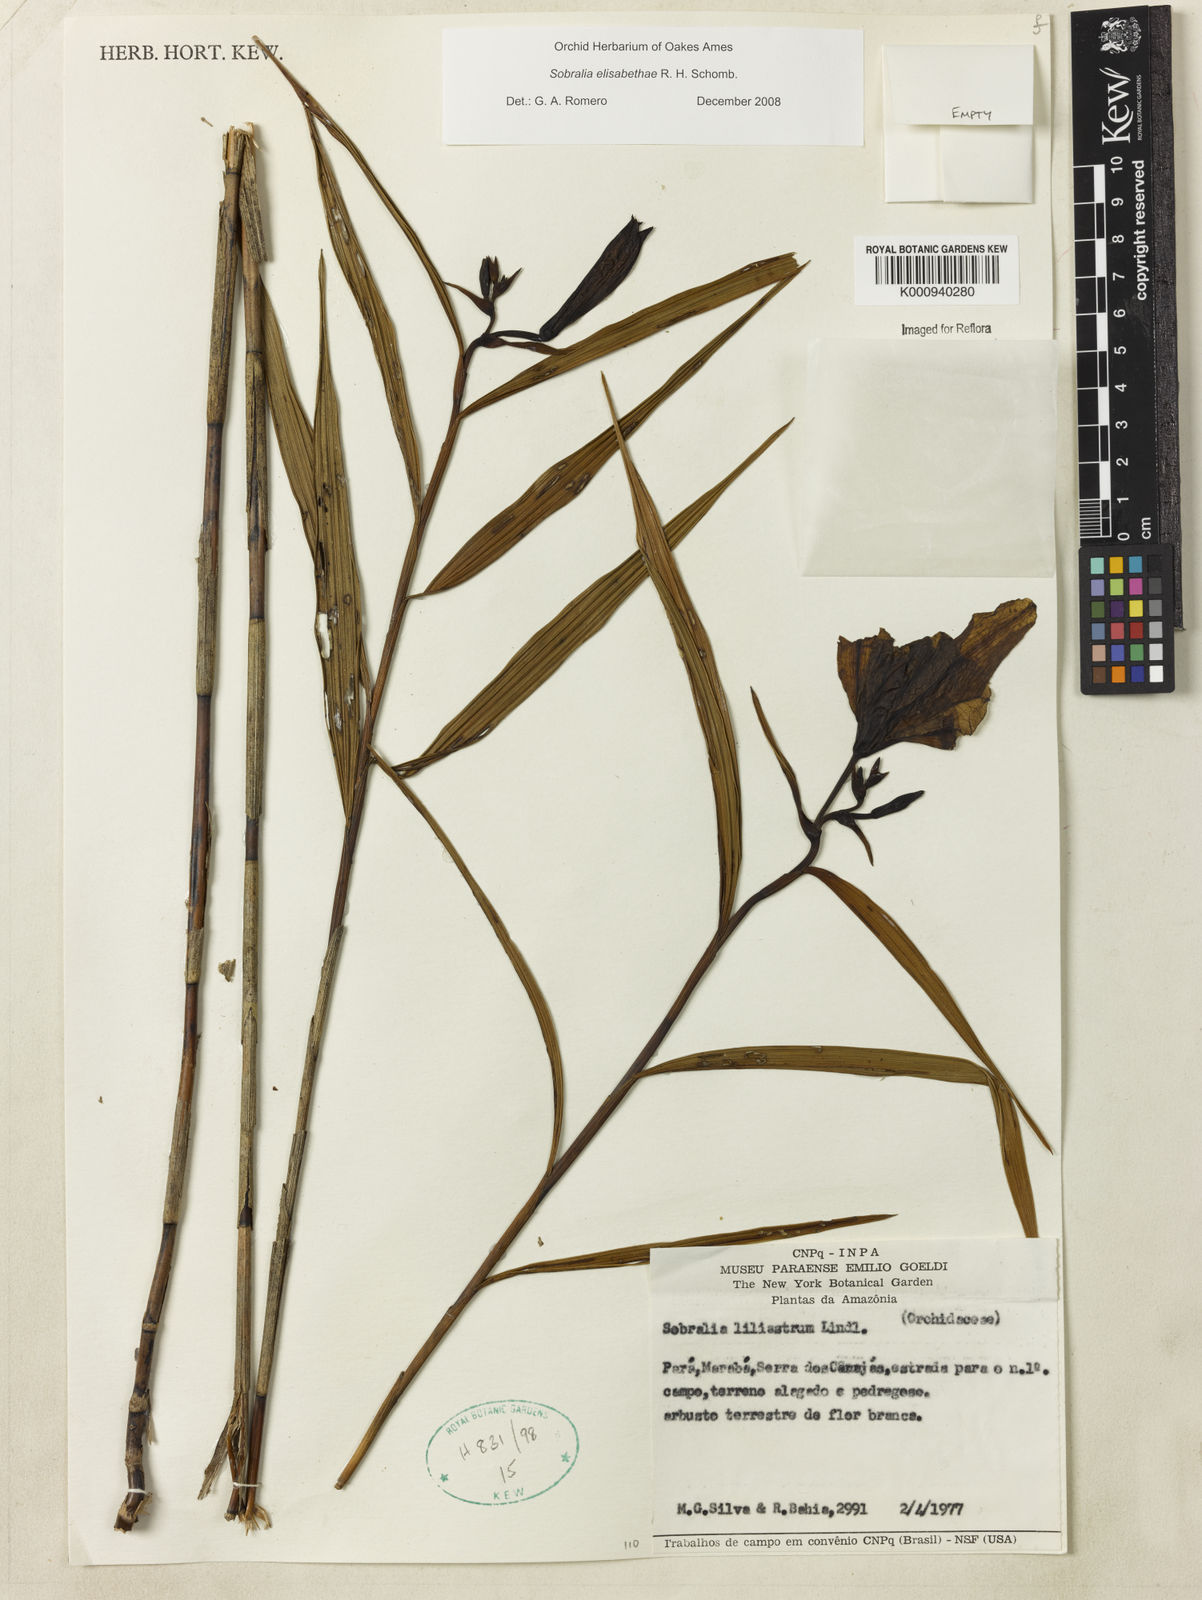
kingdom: Plantae
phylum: Tracheophyta
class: Liliopsida
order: Asparagales
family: Orchidaceae
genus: Sobralia
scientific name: Sobralia elisabethae
